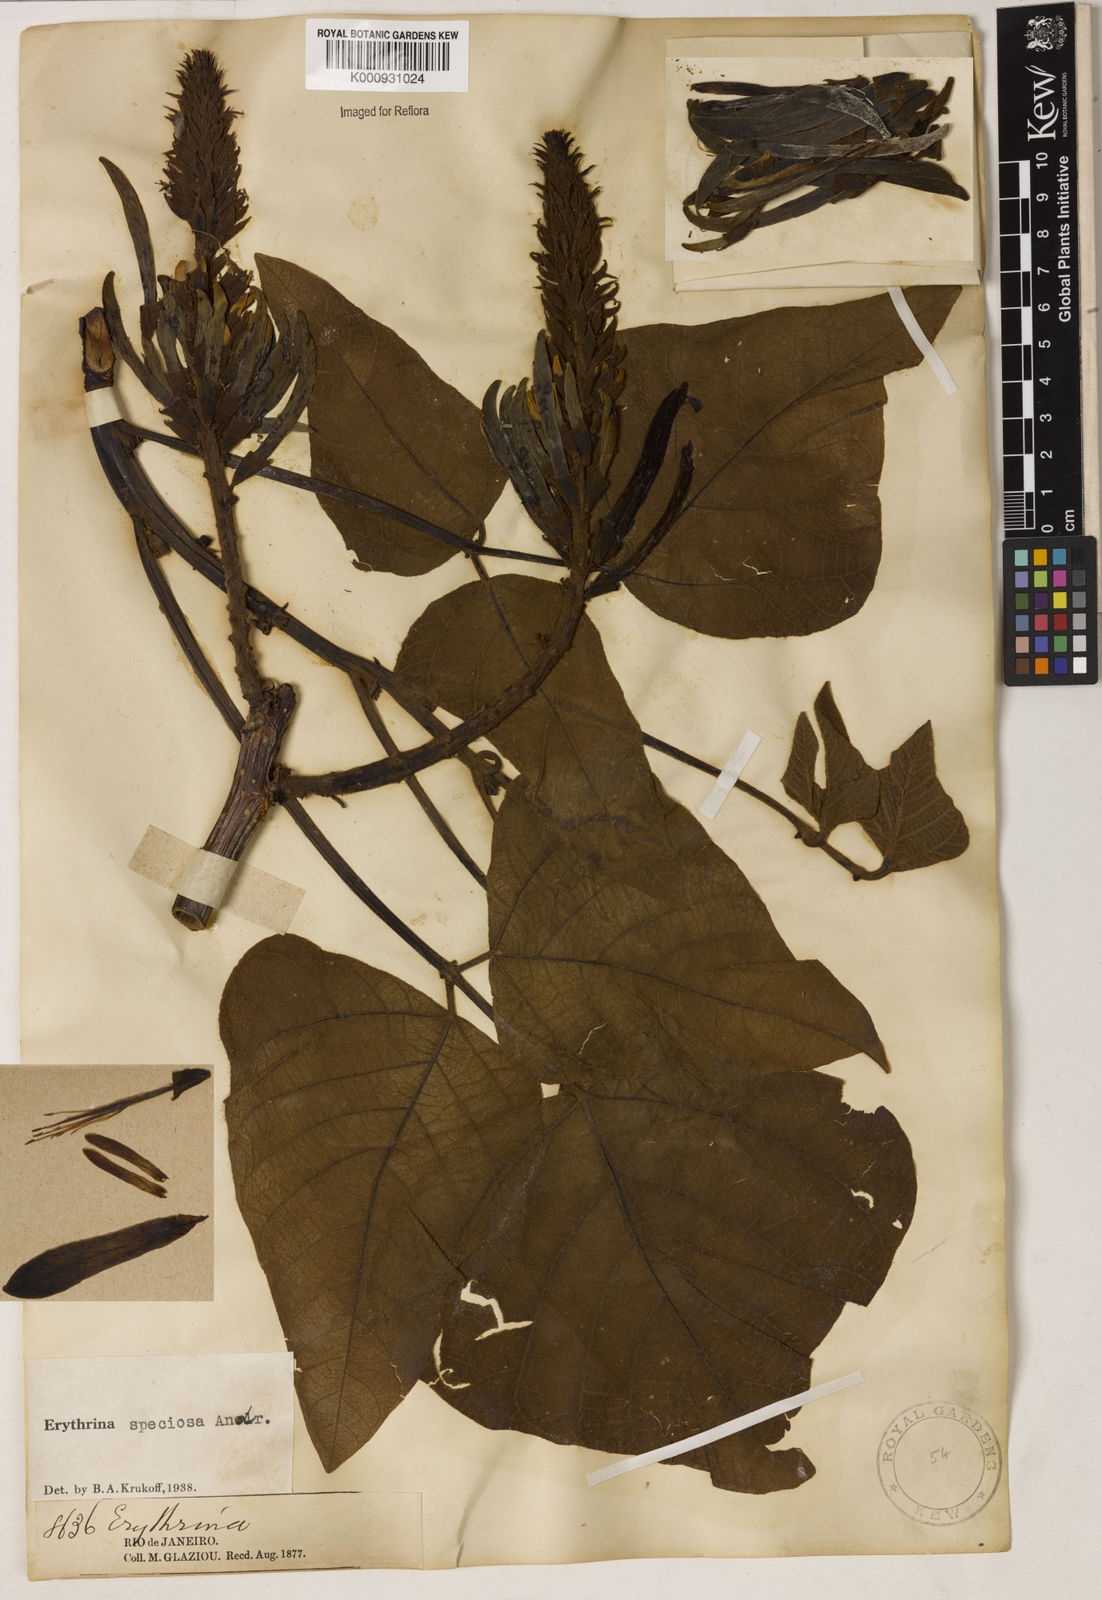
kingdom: Plantae
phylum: Tracheophyta
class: Magnoliopsida
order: Fabales
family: Fabaceae
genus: Erythrina
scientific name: Erythrina speciosa
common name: Coral tree
